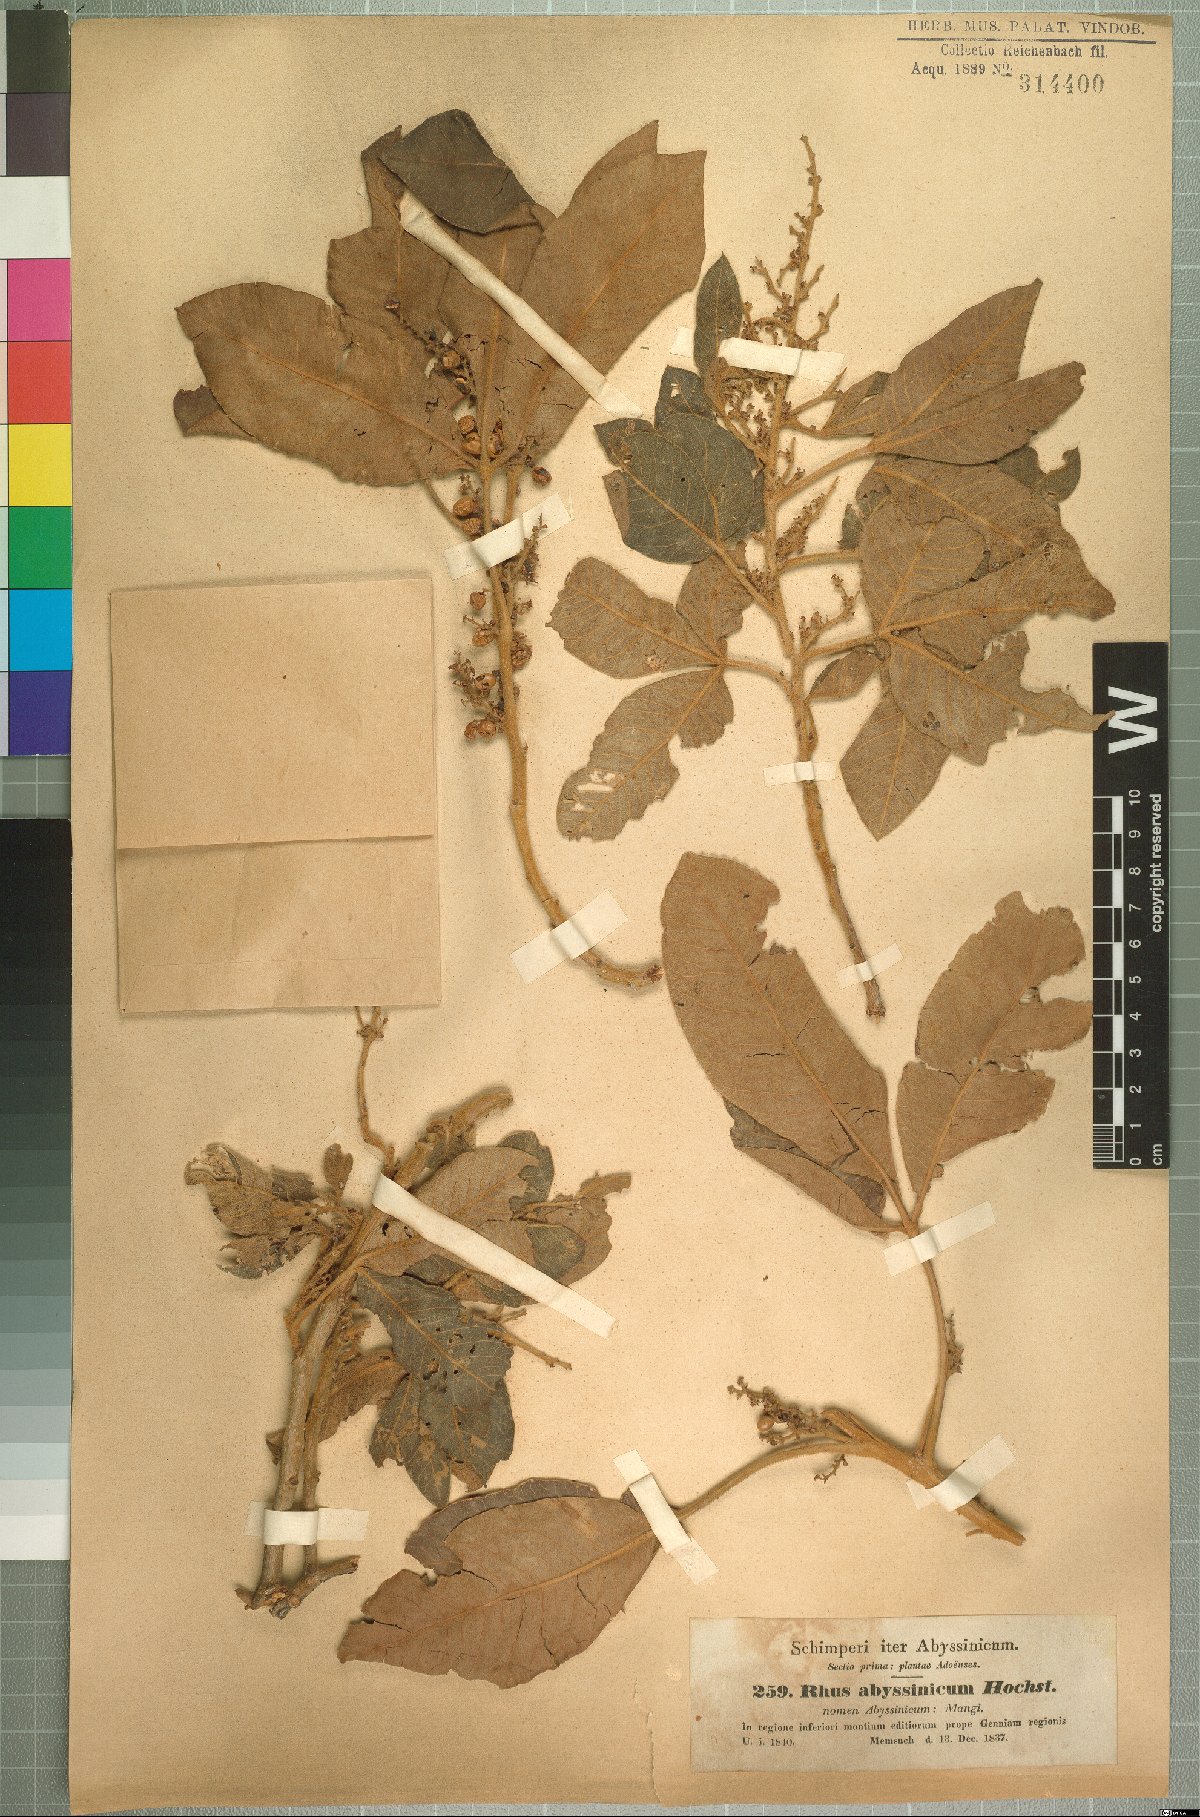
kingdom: Plantae
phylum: Tracheophyta
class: Magnoliopsida
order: Sapindales
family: Anacardiaceae
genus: Searsia
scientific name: Searsia glutinosa
